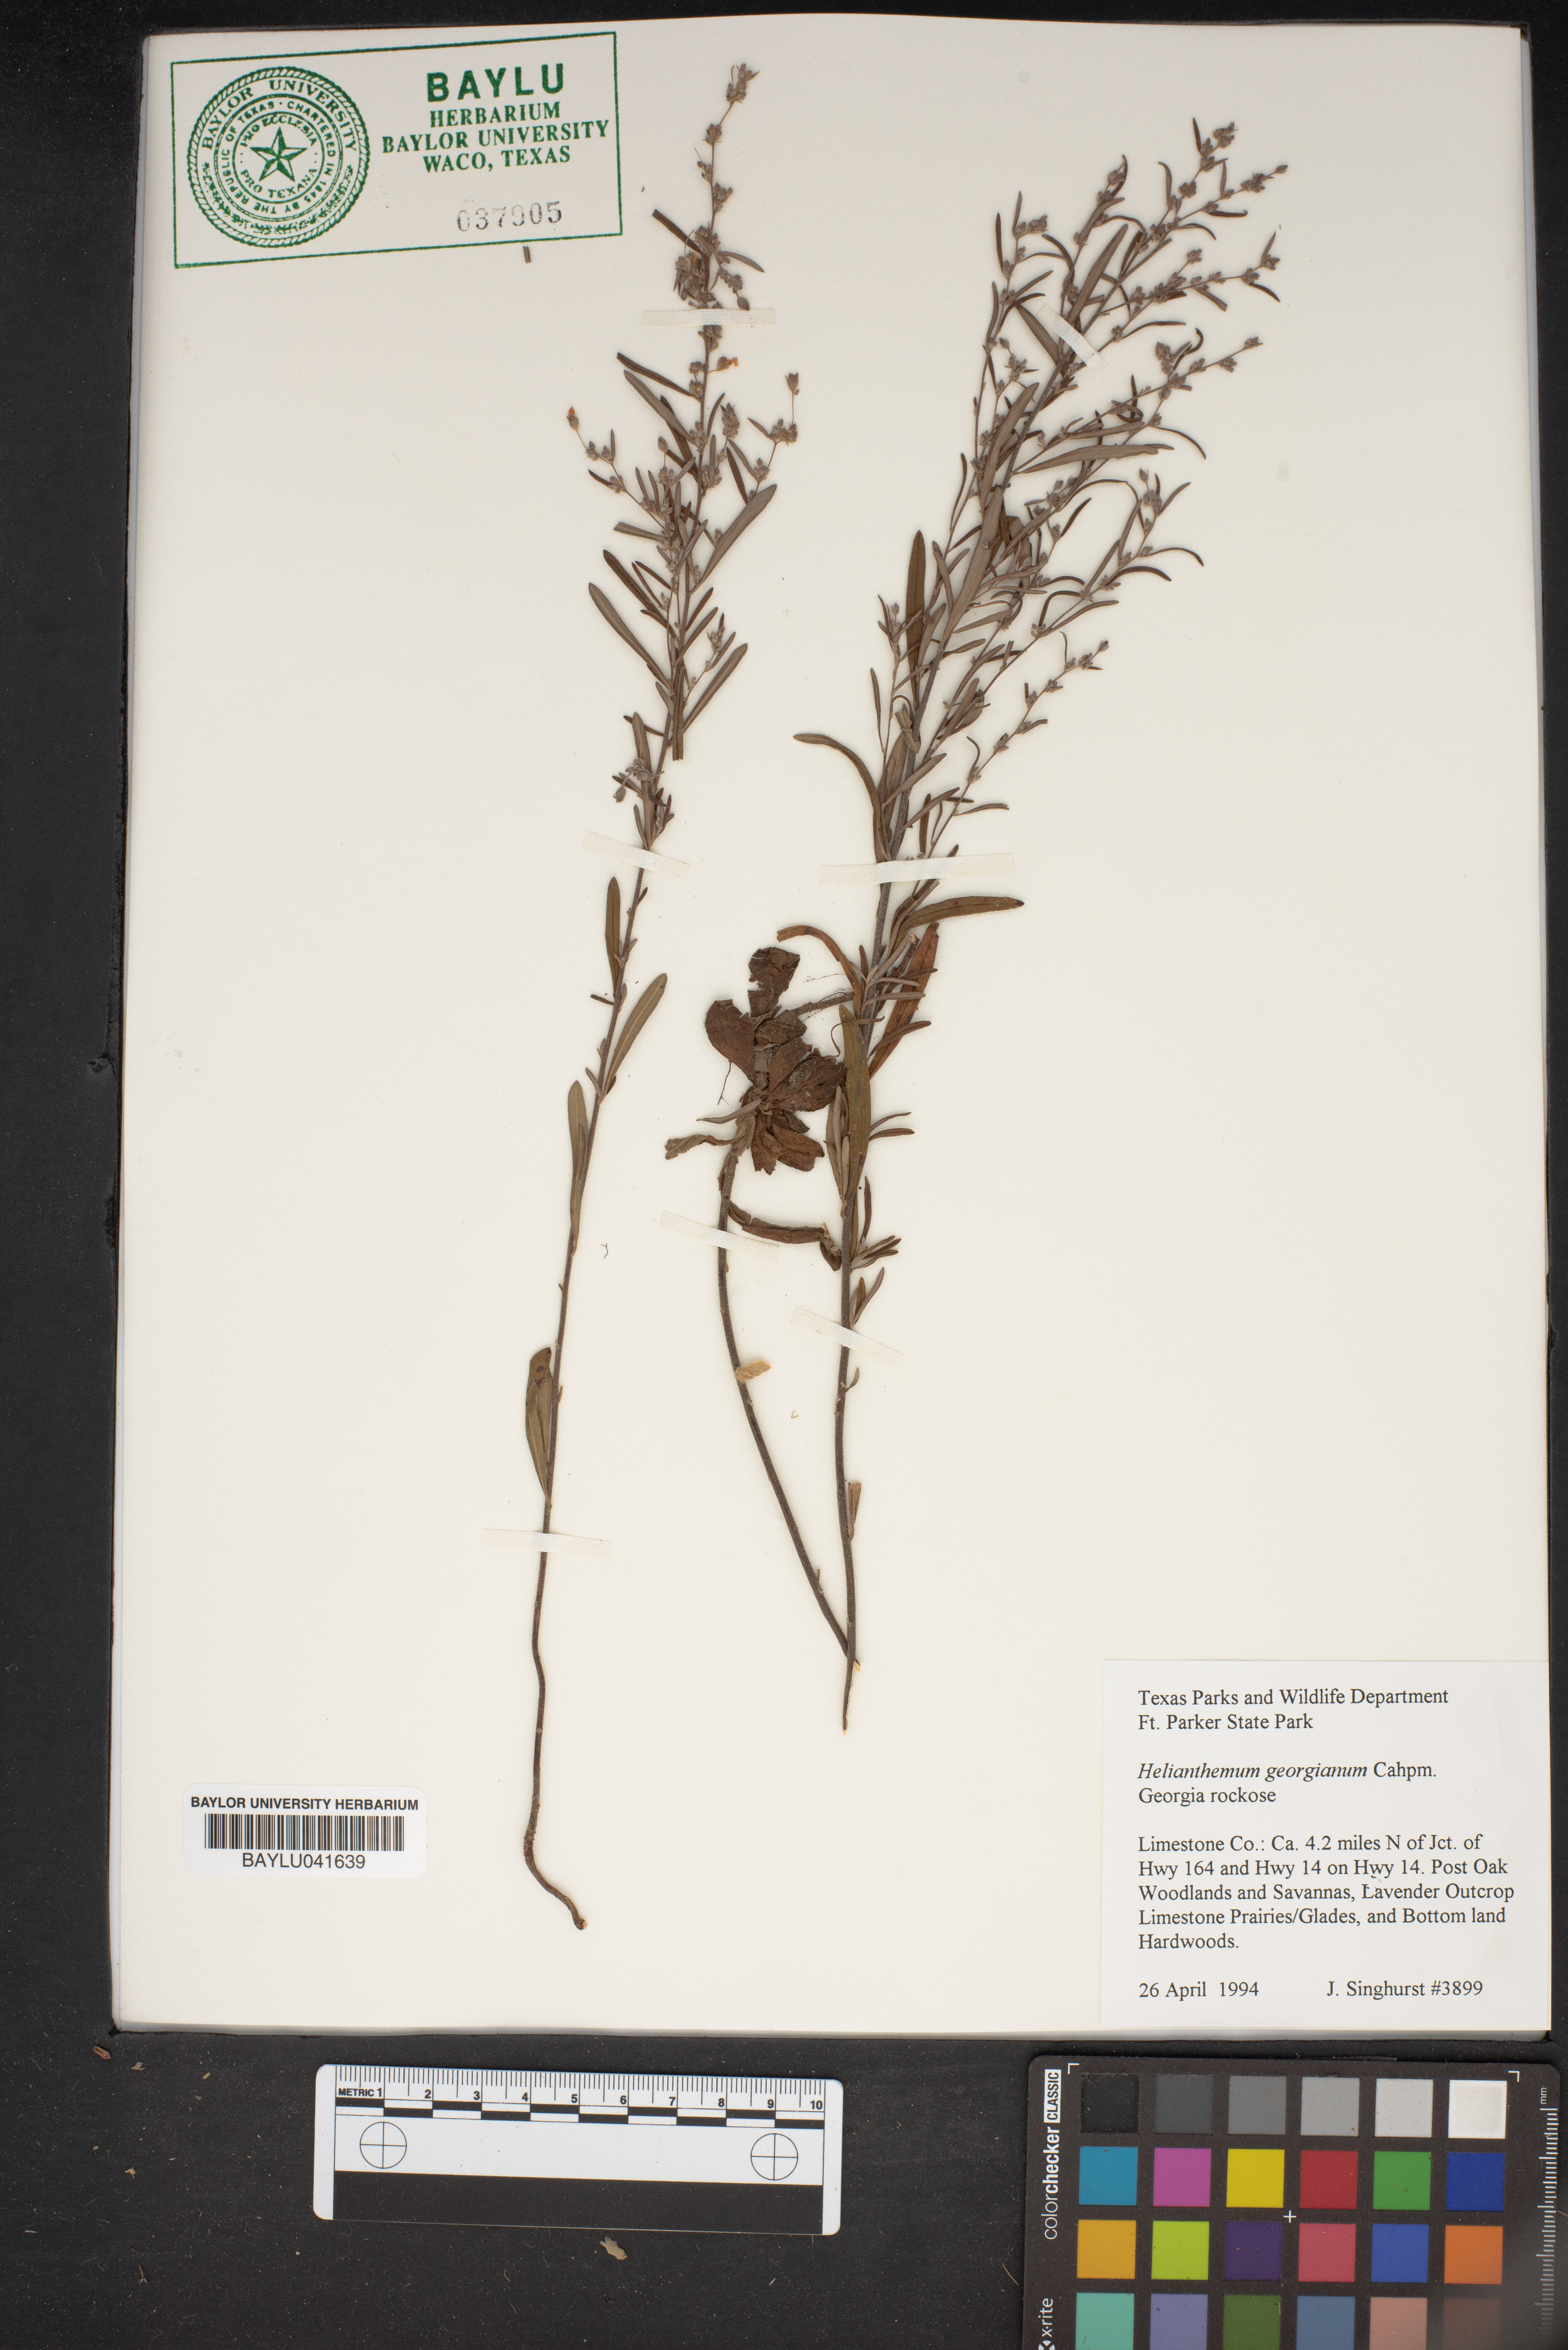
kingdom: Plantae
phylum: Tracheophyta
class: Magnoliopsida
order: Malvales
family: Cistaceae
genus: Crocanthemum
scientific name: Crocanthemum georgianum
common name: Georgia frostweed
